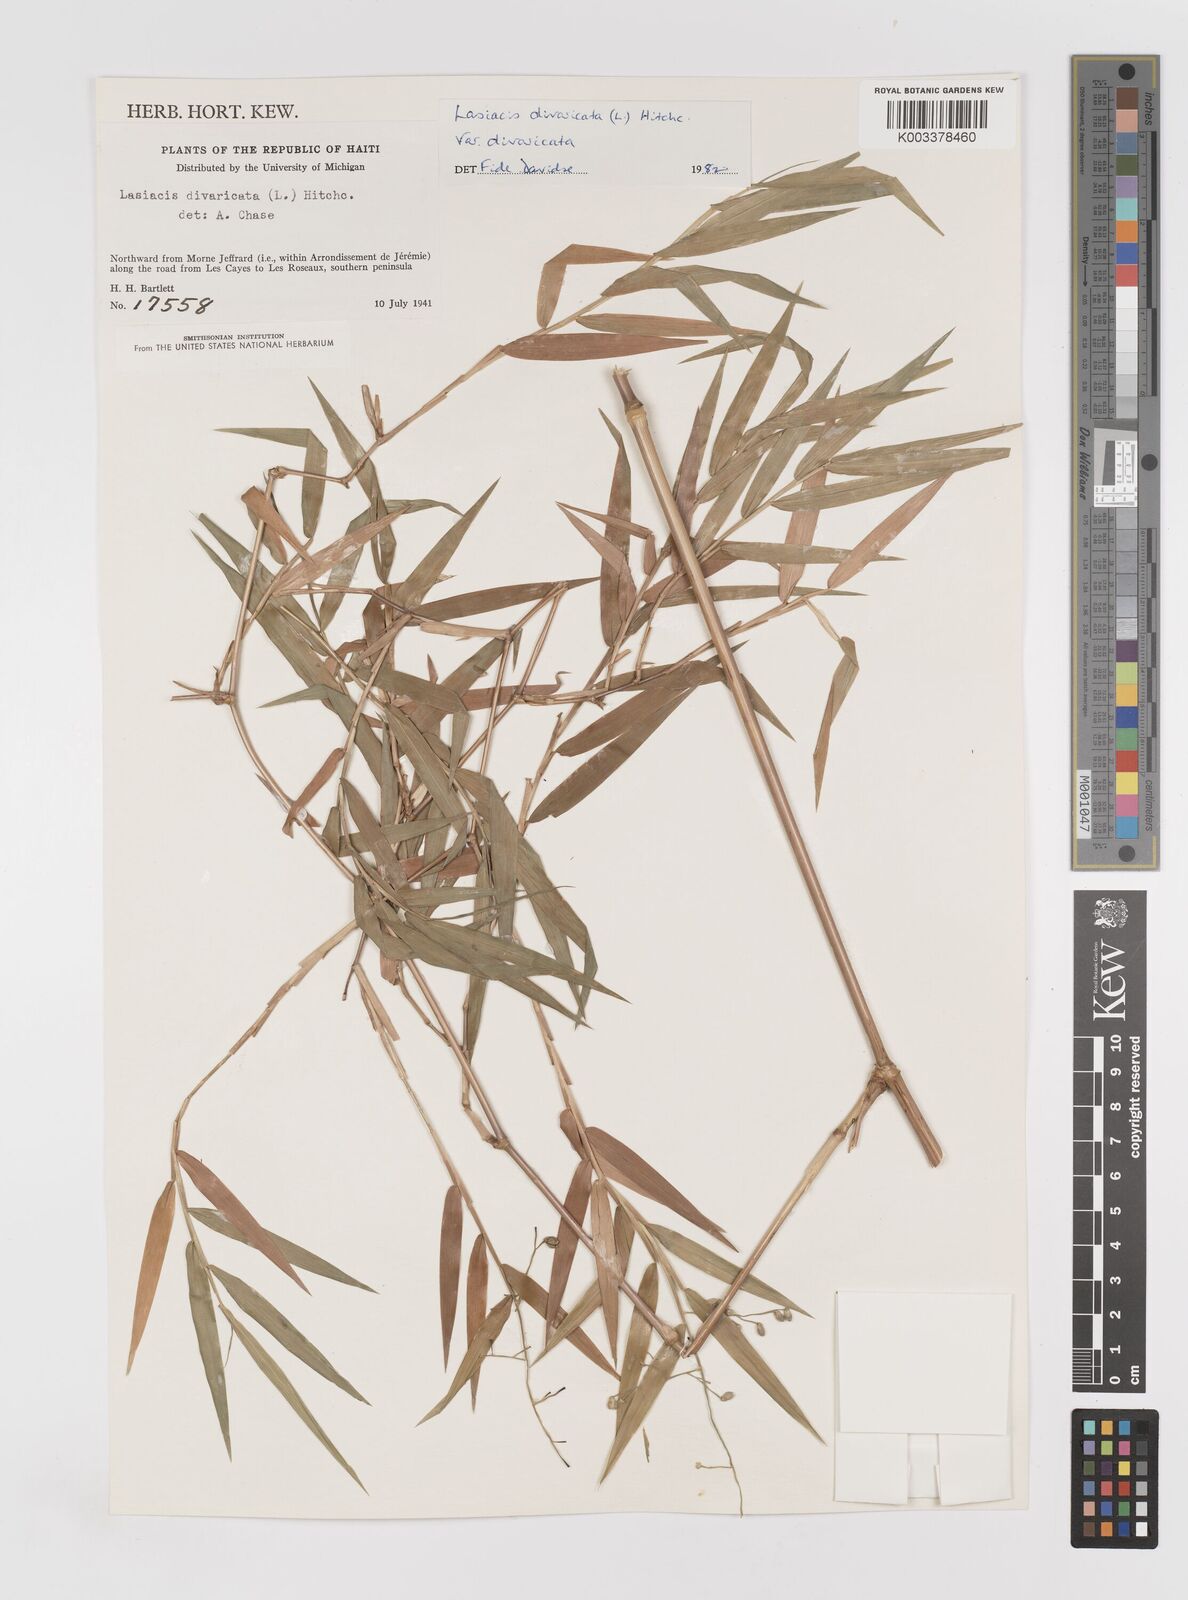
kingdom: Plantae
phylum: Tracheophyta
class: Liliopsida
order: Poales
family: Poaceae
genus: Lasiacis
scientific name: Lasiacis divaricata
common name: Smallcane
